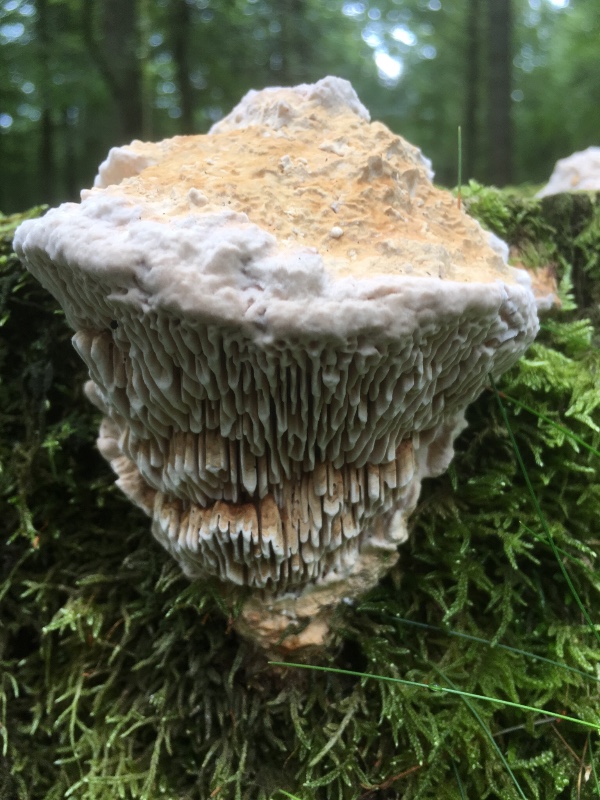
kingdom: Fungi
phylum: Basidiomycota
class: Agaricomycetes
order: Polyporales
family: Fomitopsidaceae
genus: Daedalea
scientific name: Daedalea quercina
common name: ege-labyrintsvamp
